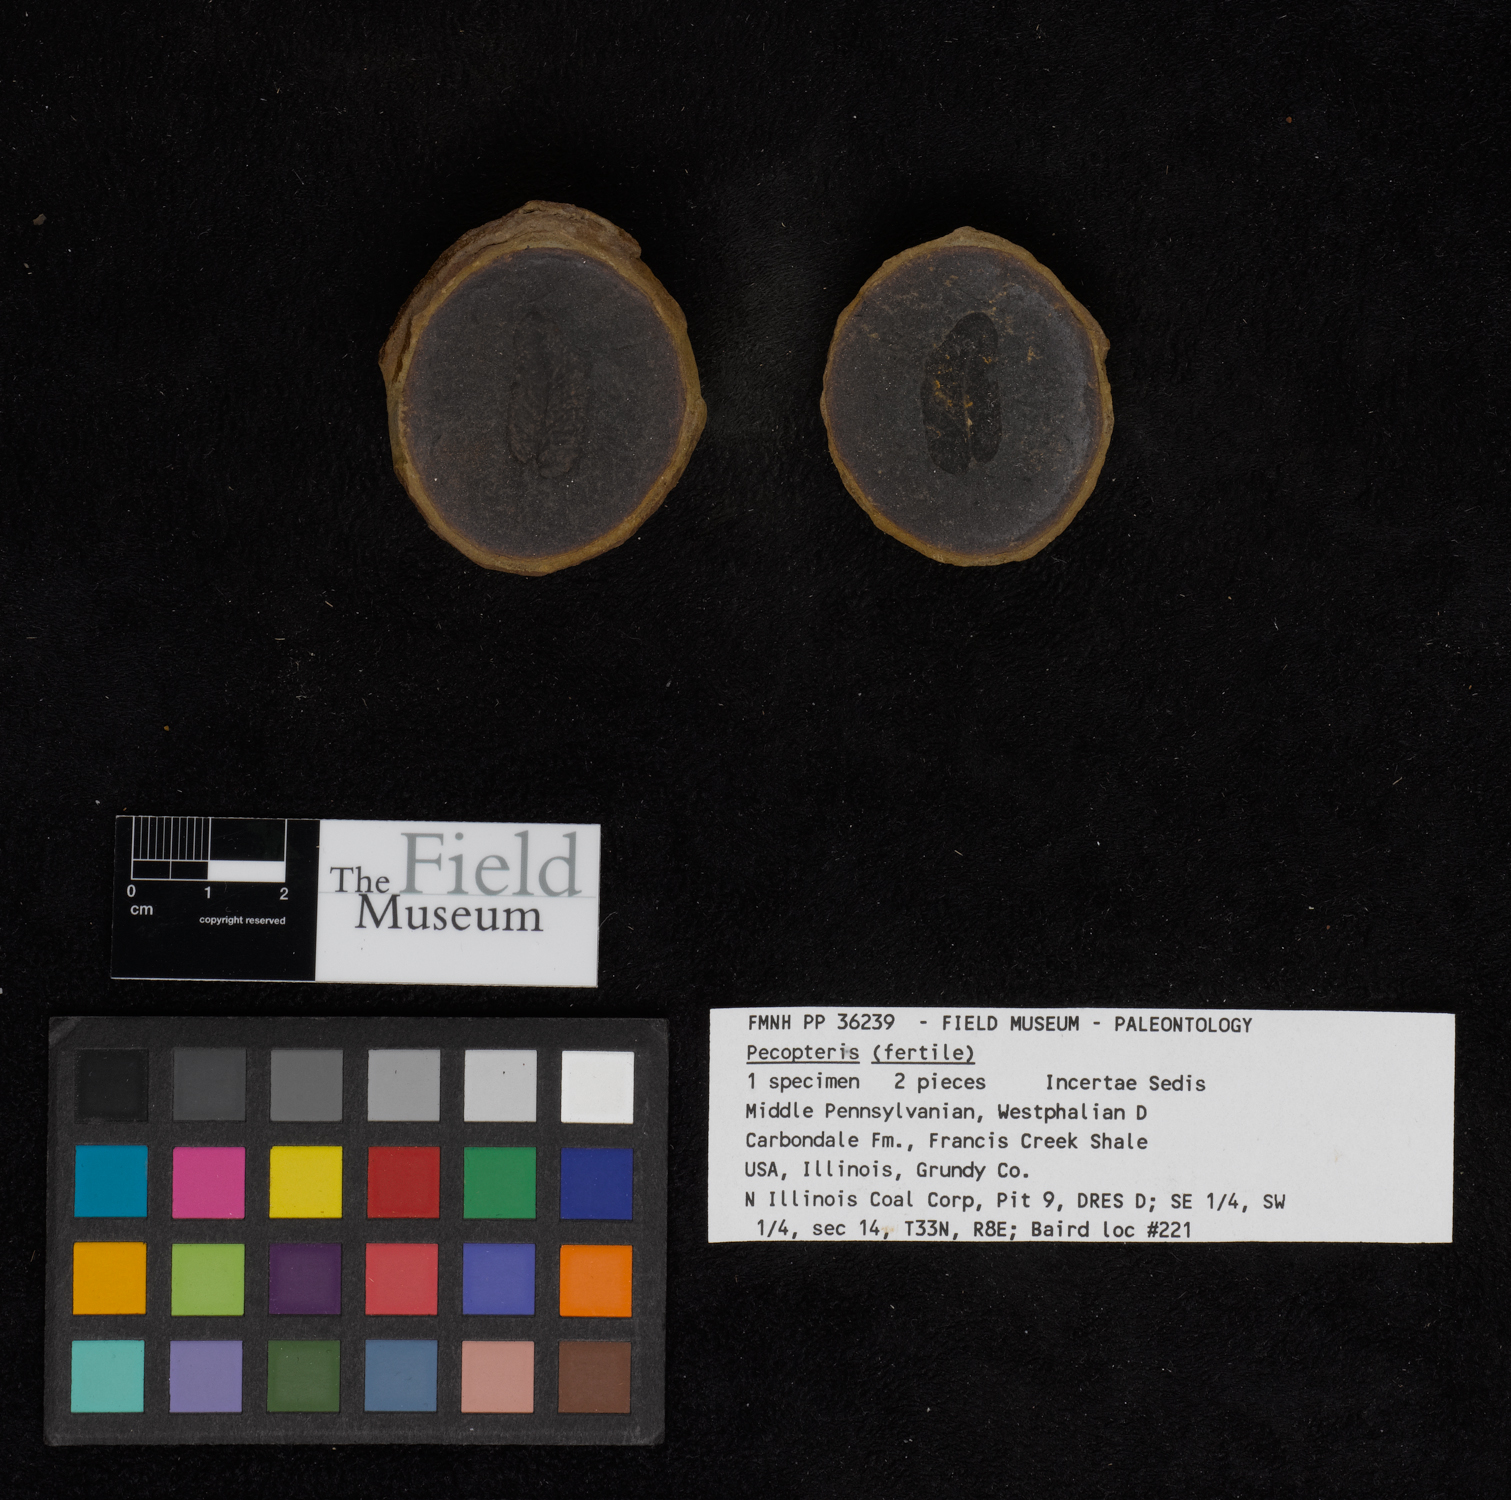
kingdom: Plantae
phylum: Tracheophyta
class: Polypodiopsida
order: Marattiales
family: Asterothecaceae
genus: Pecopteris
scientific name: Pecopteris
